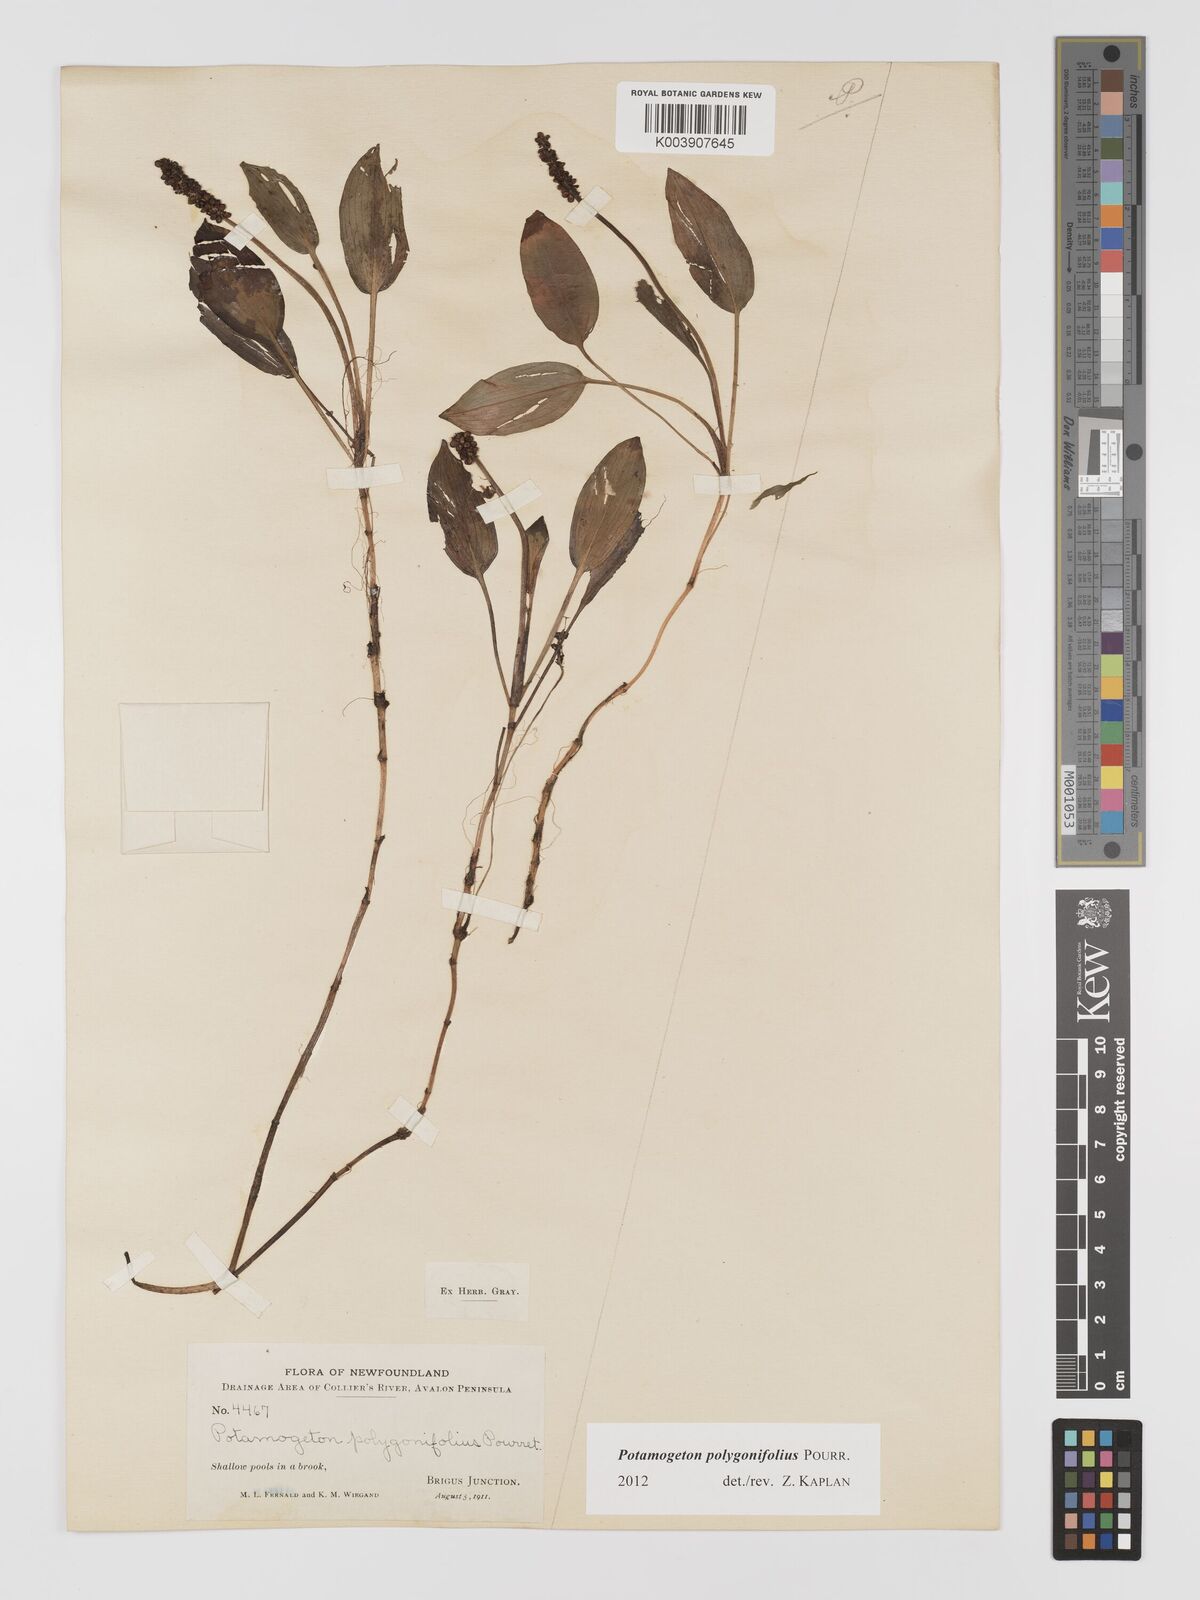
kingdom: Plantae
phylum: Tracheophyta
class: Liliopsida
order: Alismatales
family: Potamogetonaceae
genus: Potamogeton
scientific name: Potamogeton polygonifolius
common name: Bog pondweed
